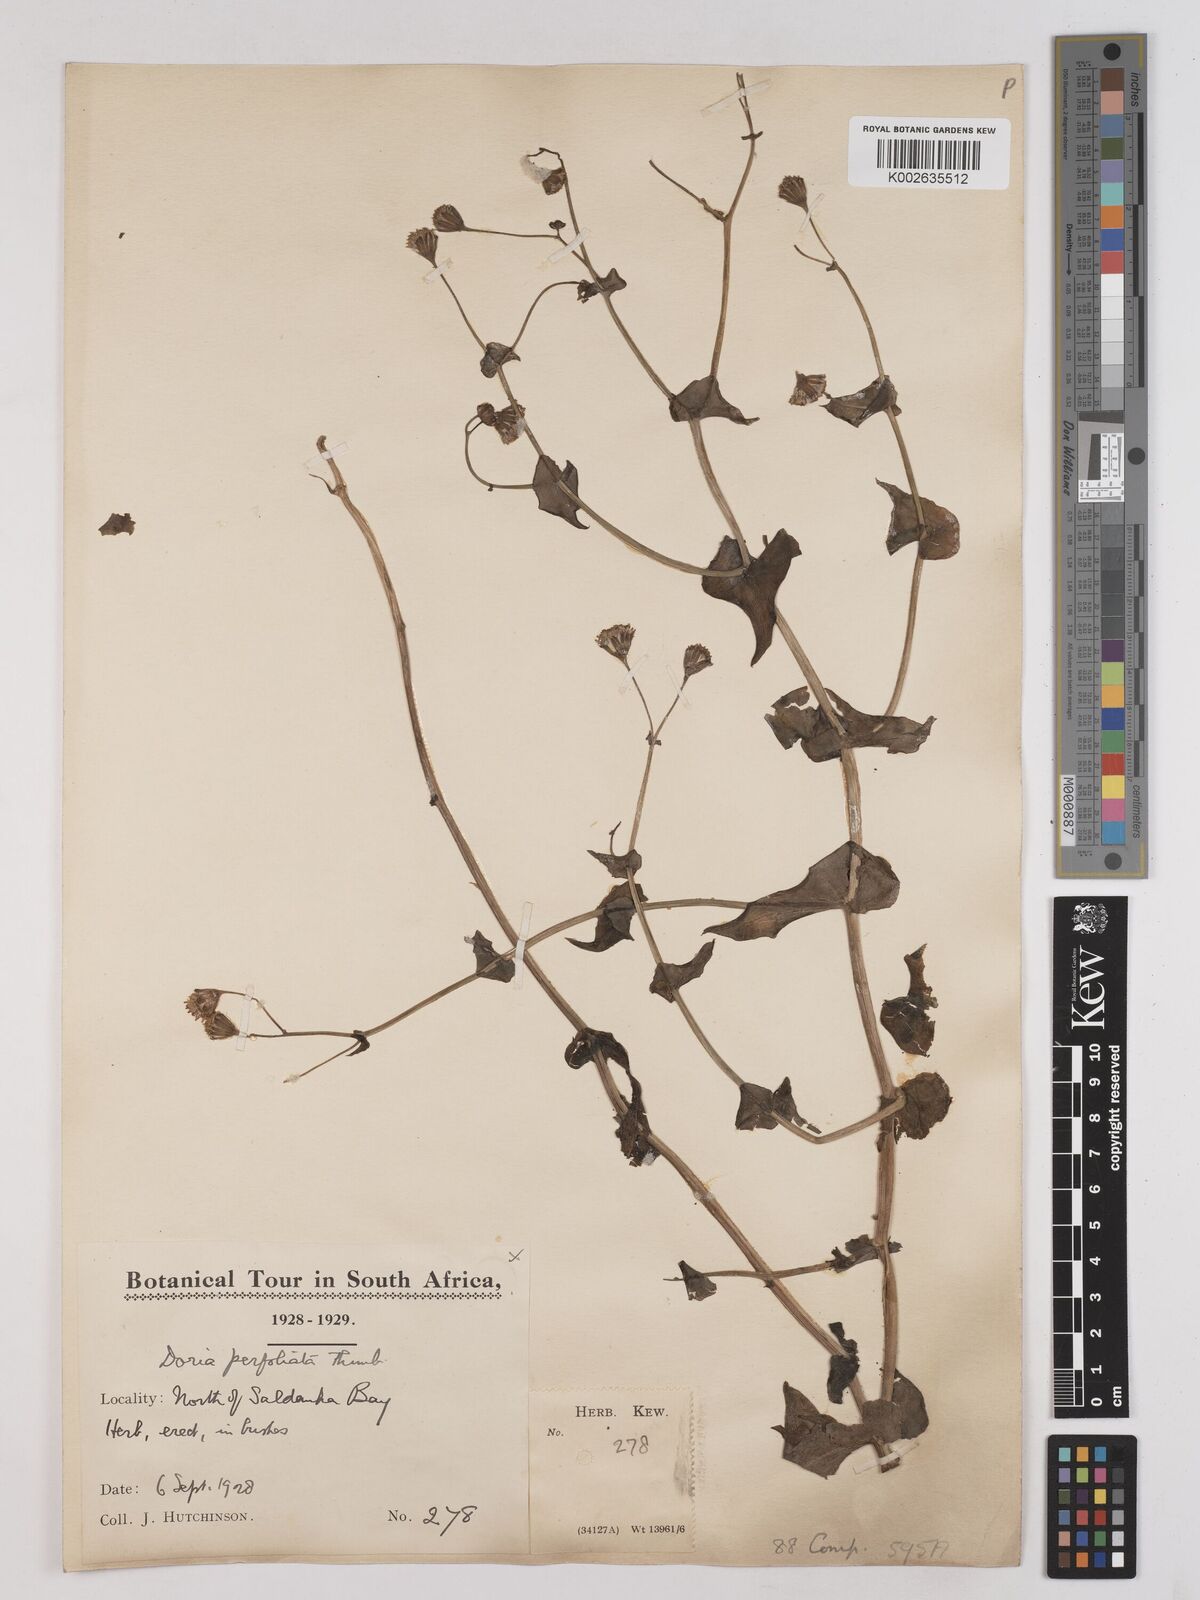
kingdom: Plantae
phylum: Tracheophyta
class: Magnoliopsida
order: Asterales
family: Asteraceae
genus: Othonna
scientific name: Othonna perfoliata
